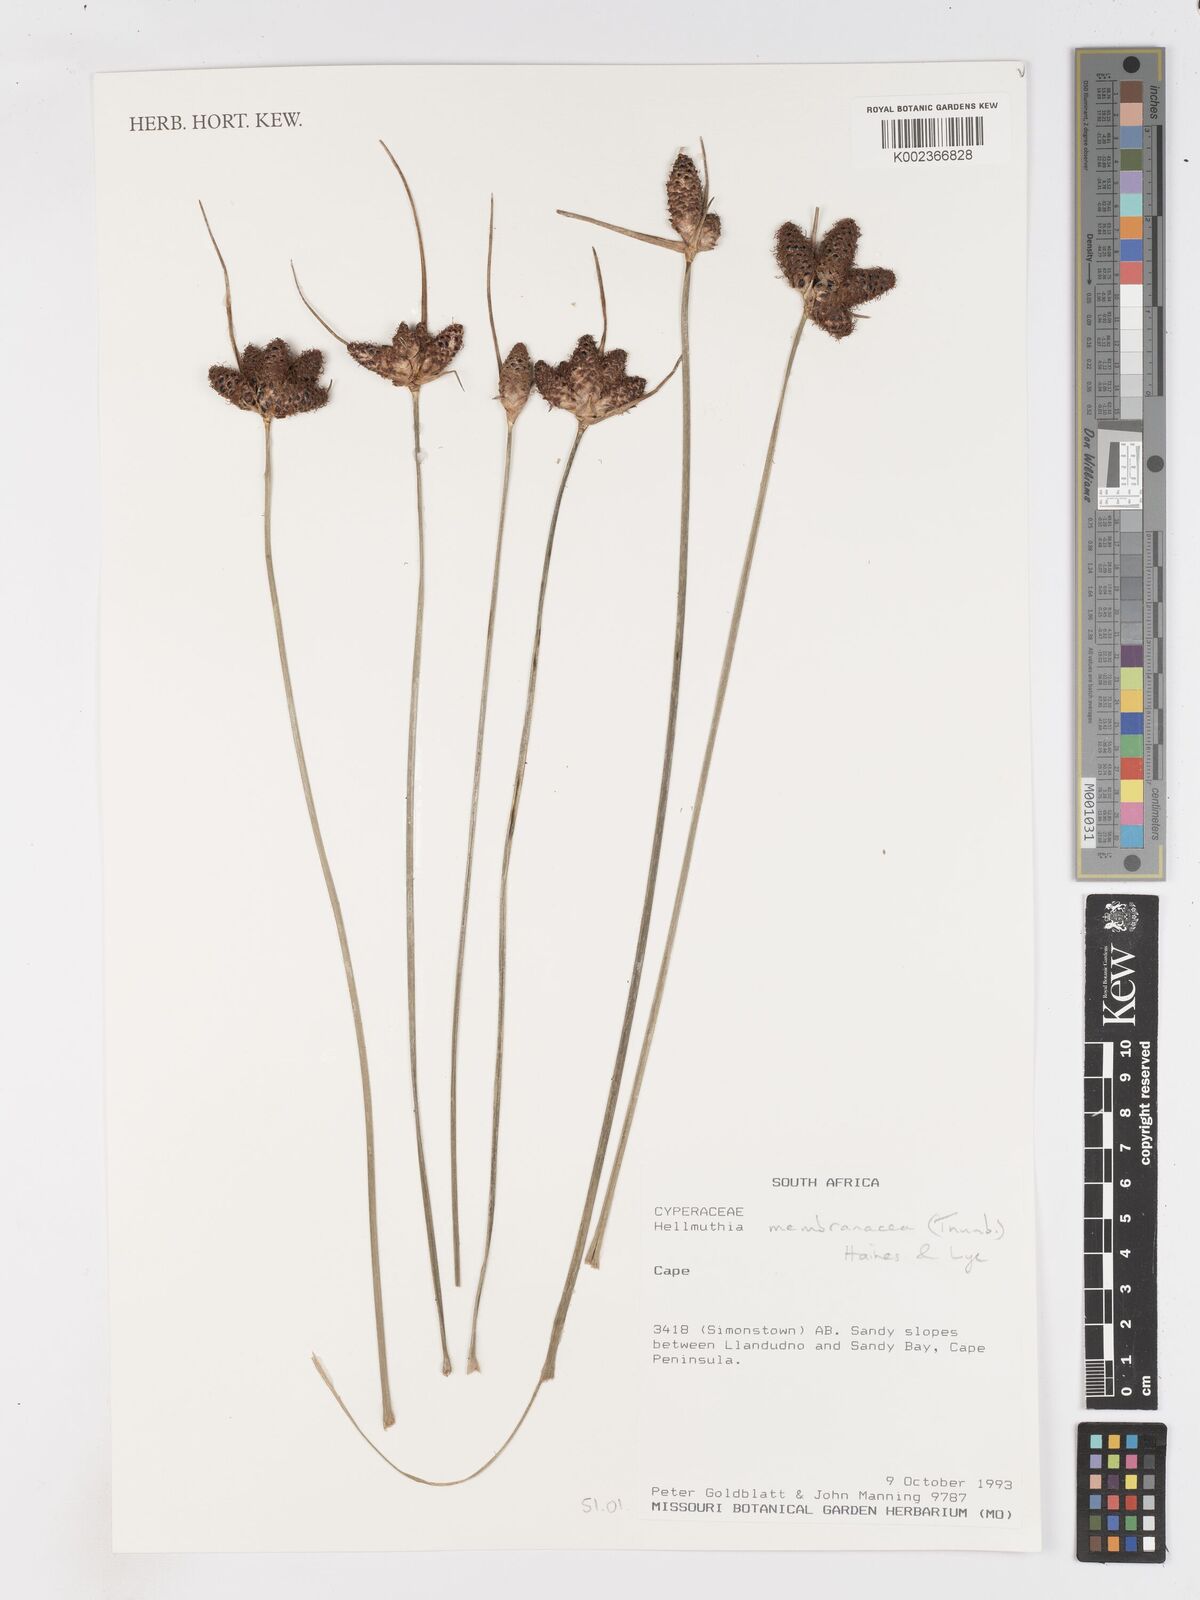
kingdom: Plantae
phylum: Tracheophyta
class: Liliopsida
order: Poales
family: Cyperaceae
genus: Hellmuthia
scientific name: Hellmuthia membranacea
